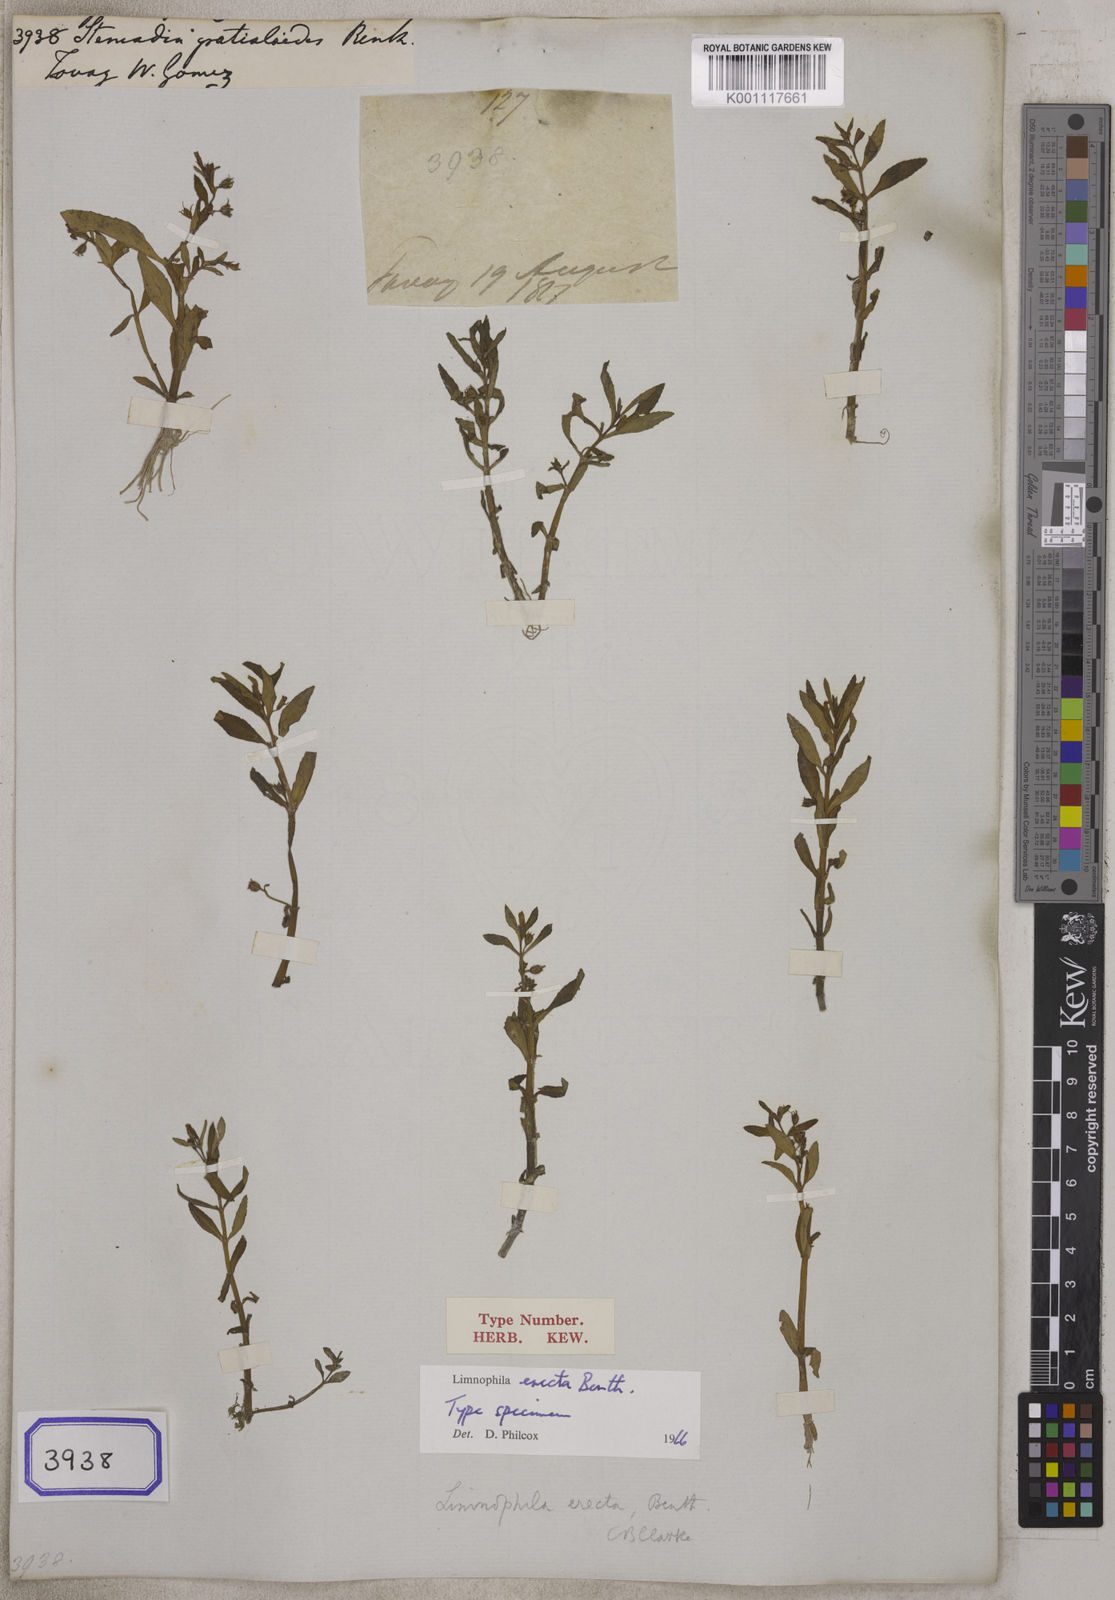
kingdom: Plantae
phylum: Tracheophyta
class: Magnoliopsida
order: Lamiales
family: Plantaginaceae
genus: Stemodia
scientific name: Stemodia
